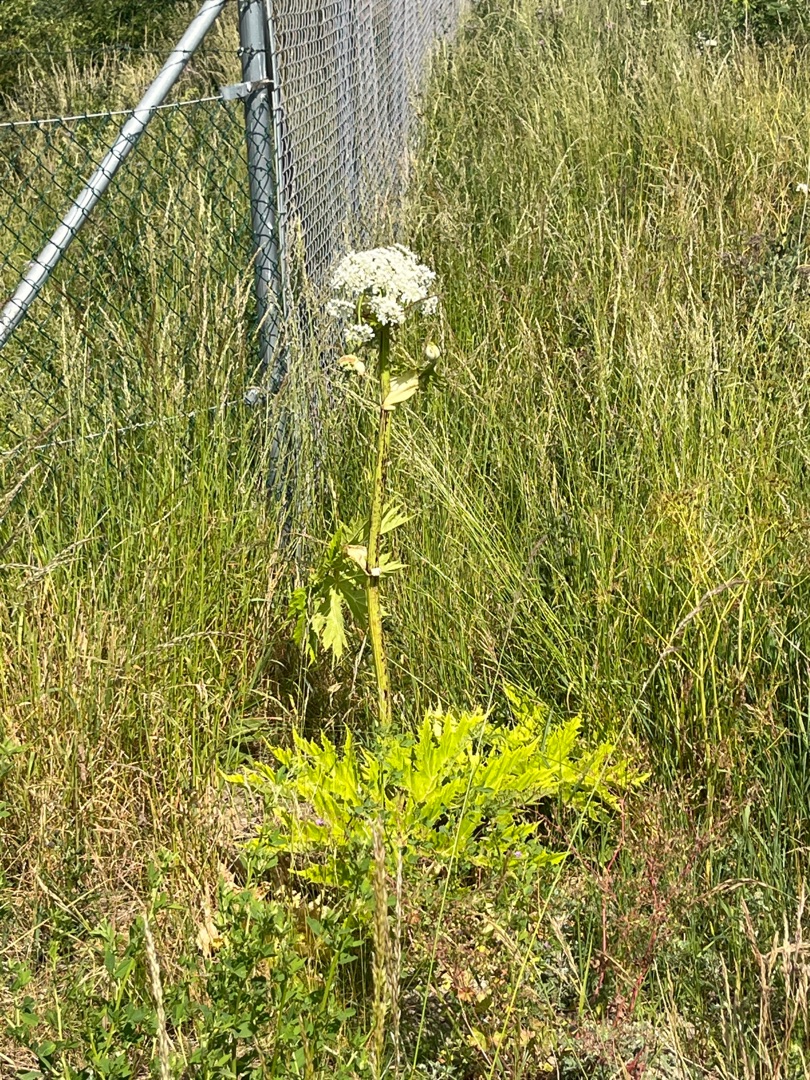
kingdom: Plantae
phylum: Tracheophyta
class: Magnoliopsida
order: Apiales
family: Apiaceae
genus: Heracleum
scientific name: Heracleum mantegazzianum
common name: Kæmpe-bjørneklo
